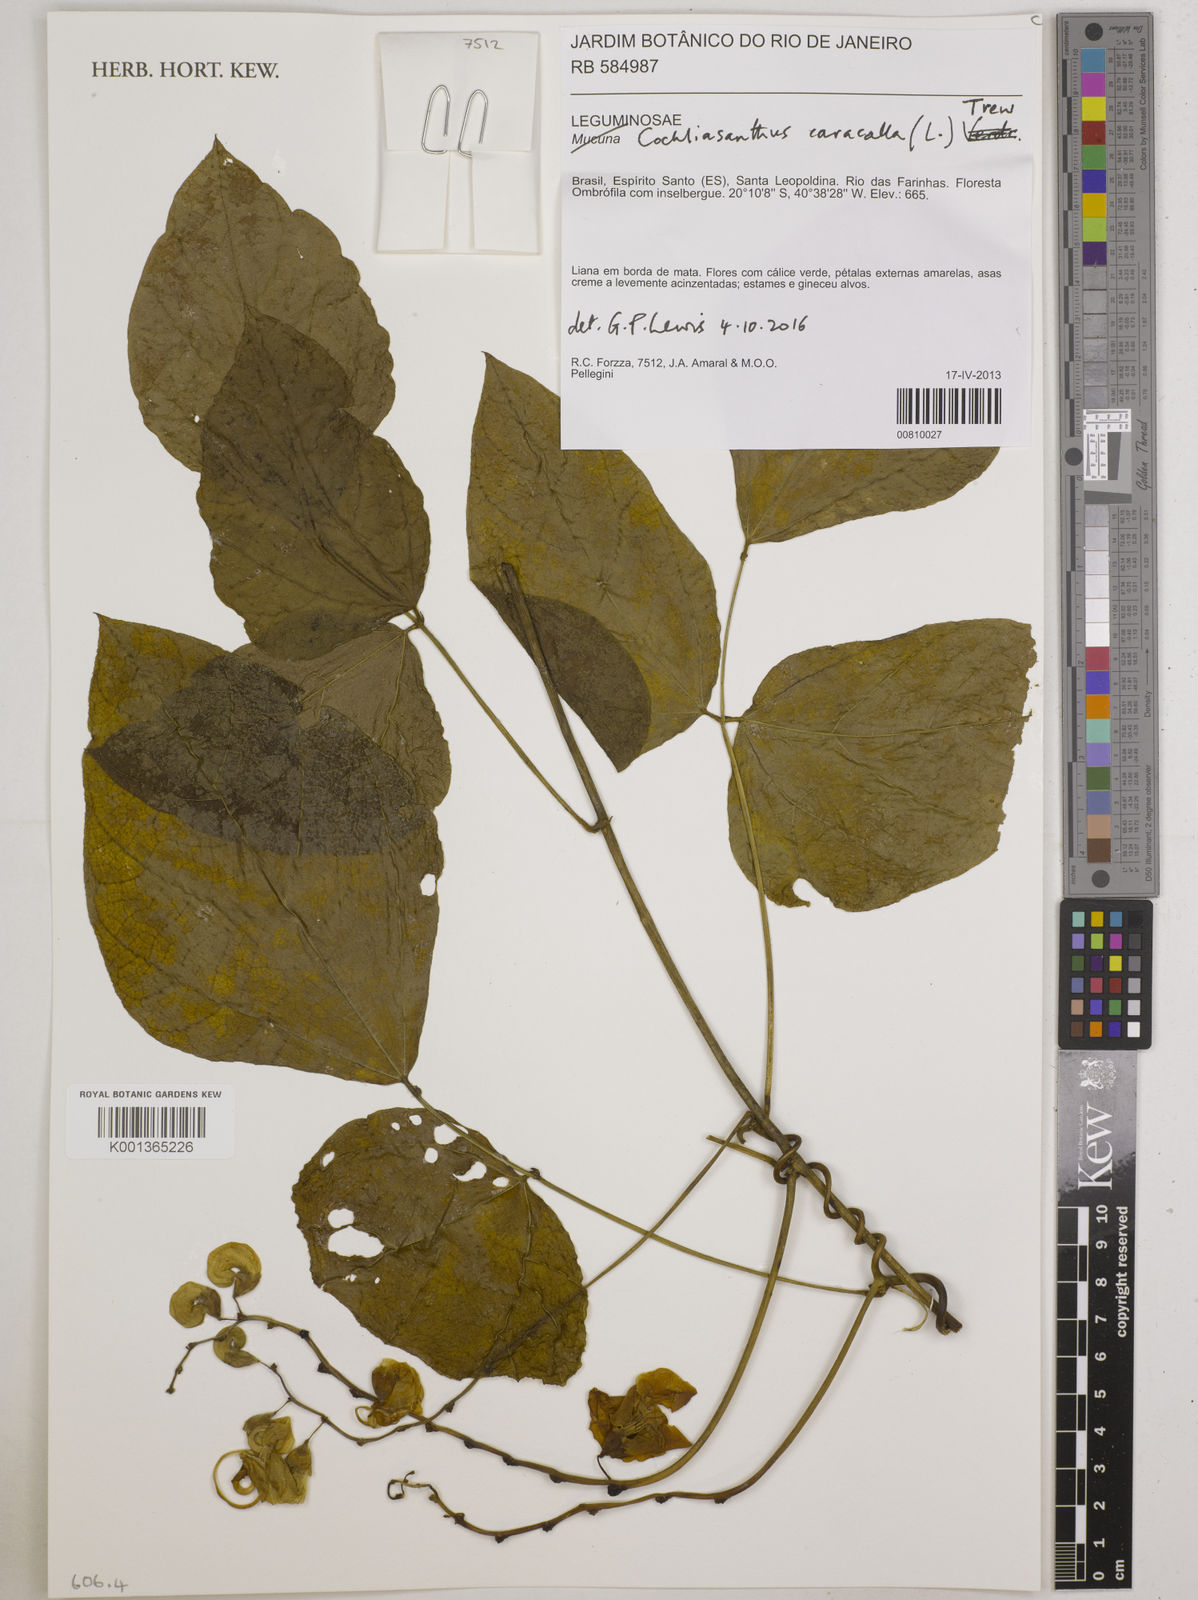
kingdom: Plantae
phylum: Tracheophyta
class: Magnoliopsida
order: Fabales
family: Fabaceae
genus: Cochliasanthus
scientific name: Cochliasanthus caracalla
